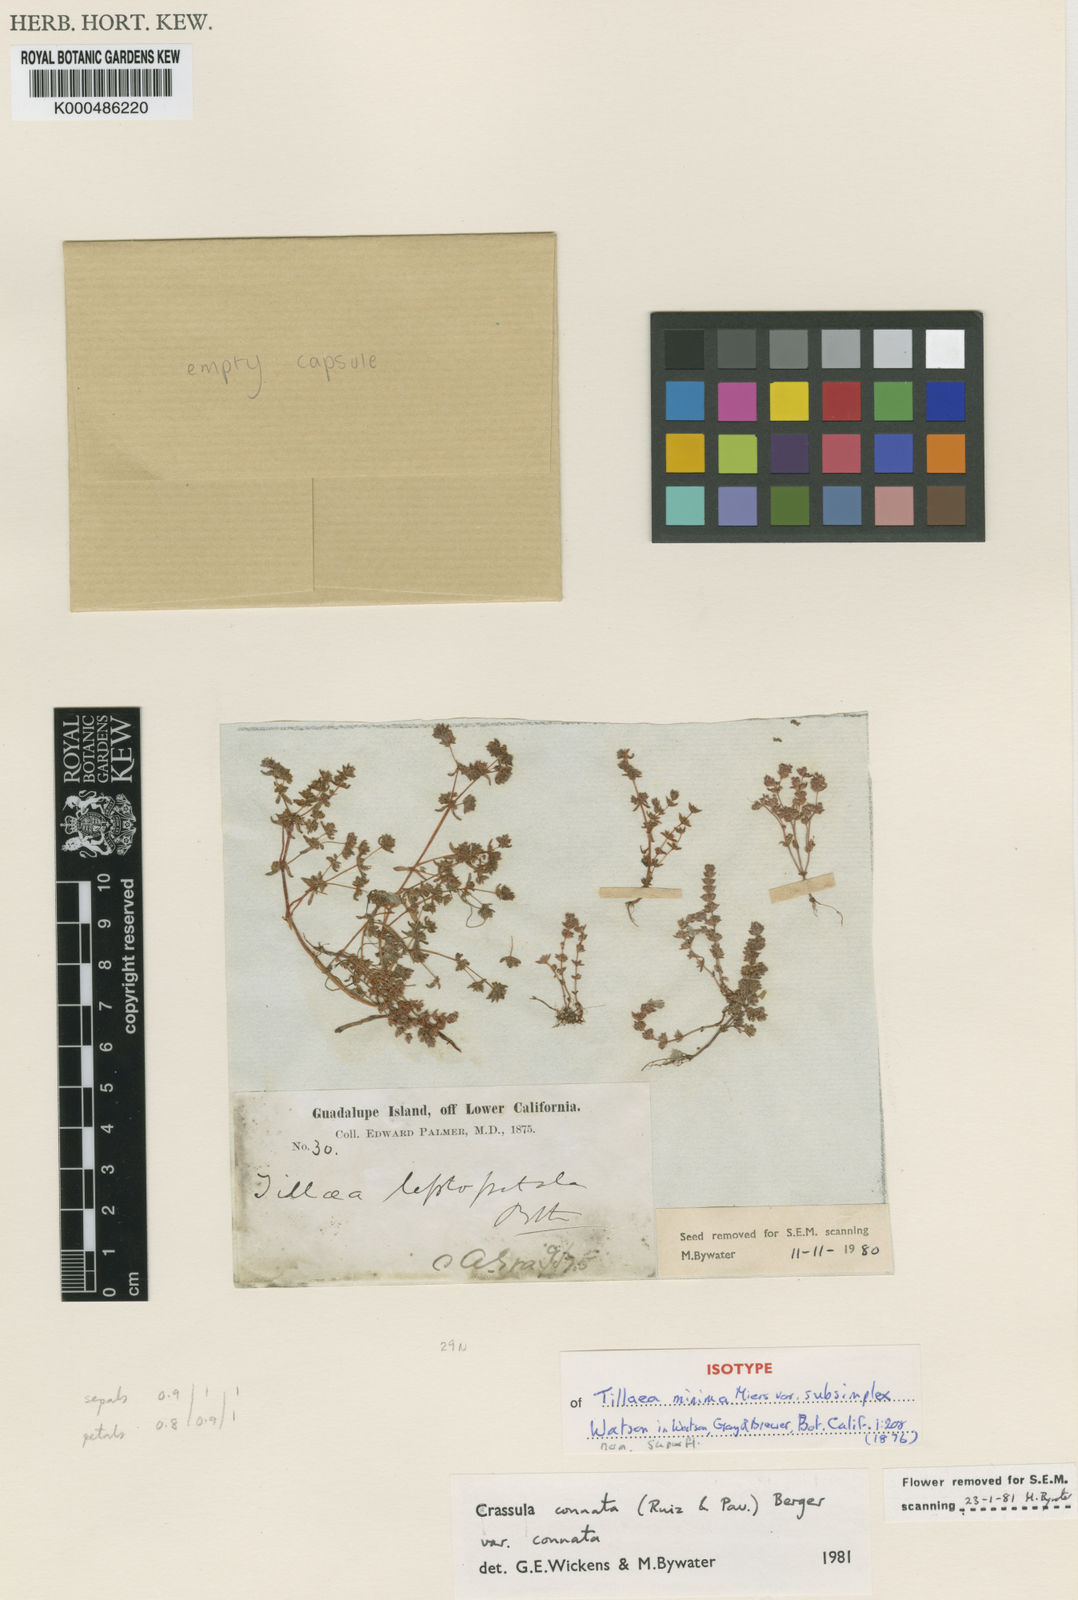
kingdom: Plantae
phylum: Tracheophyta
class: Magnoliopsida
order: Saxifragales
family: Crassulaceae
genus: Crassula
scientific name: Crassula
